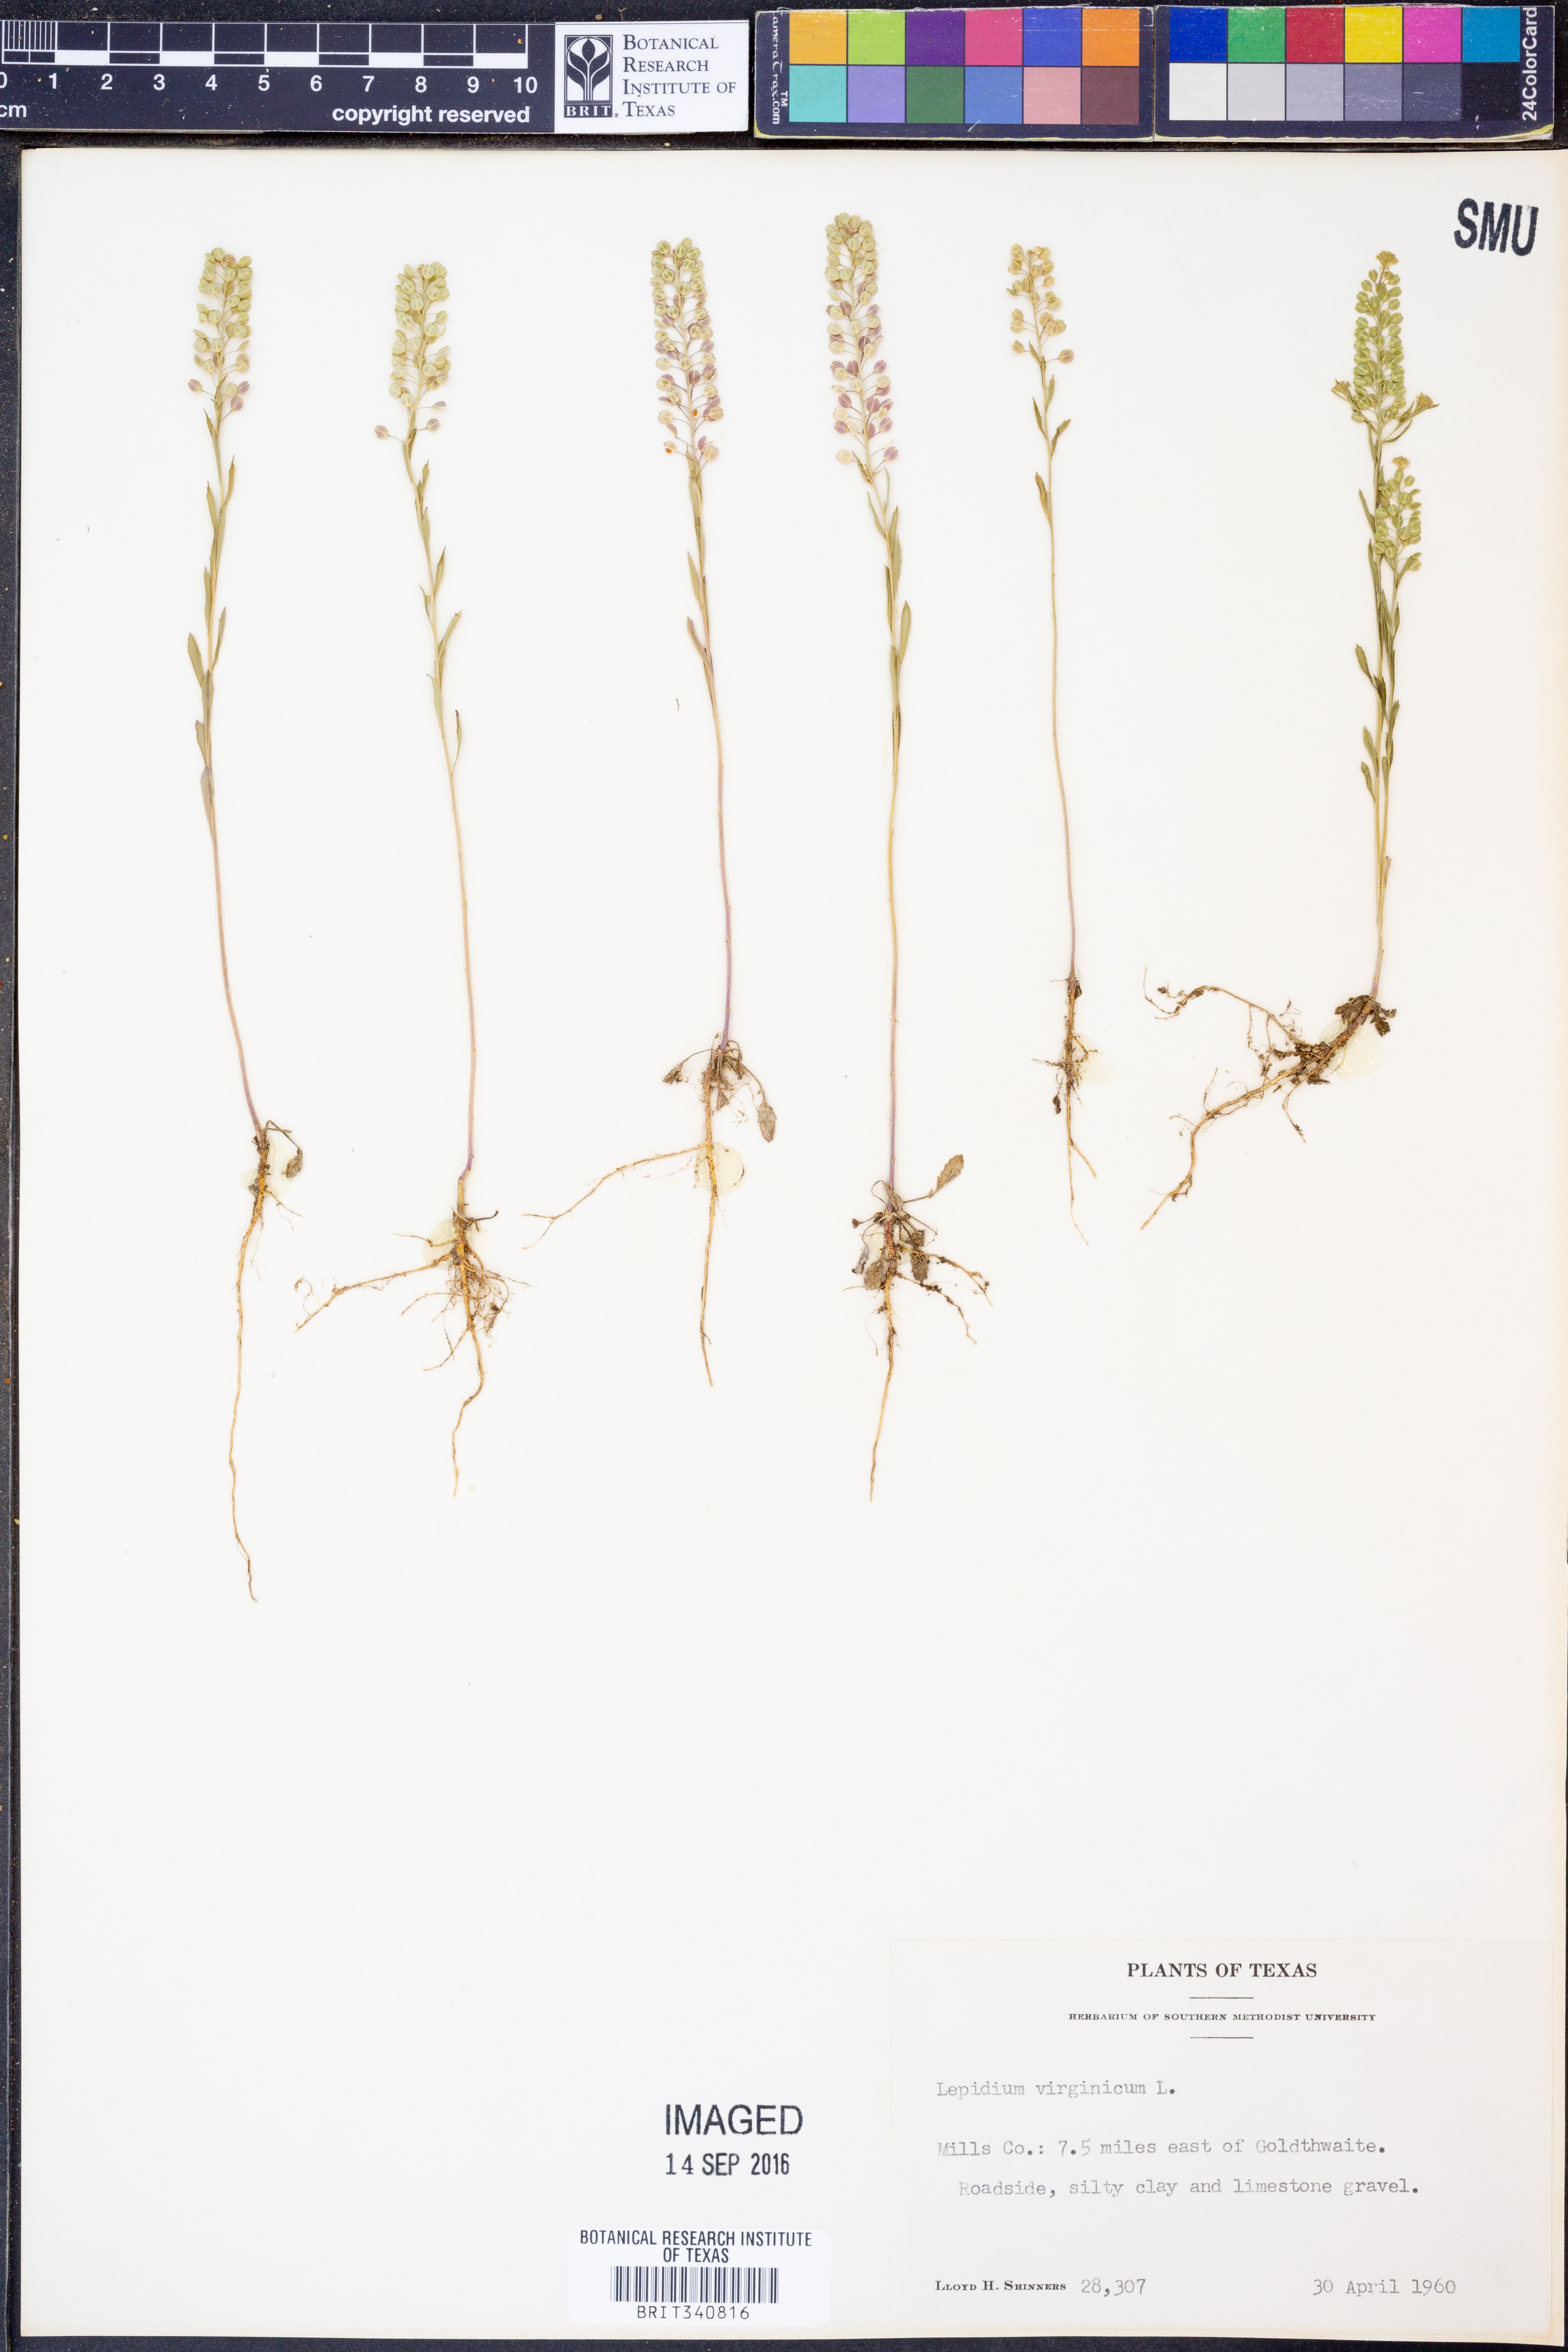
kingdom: Plantae
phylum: Tracheophyta
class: Magnoliopsida
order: Brassicales
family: Brassicaceae
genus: Lepidium
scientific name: Lepidium virginicum
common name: Least pepperwort
